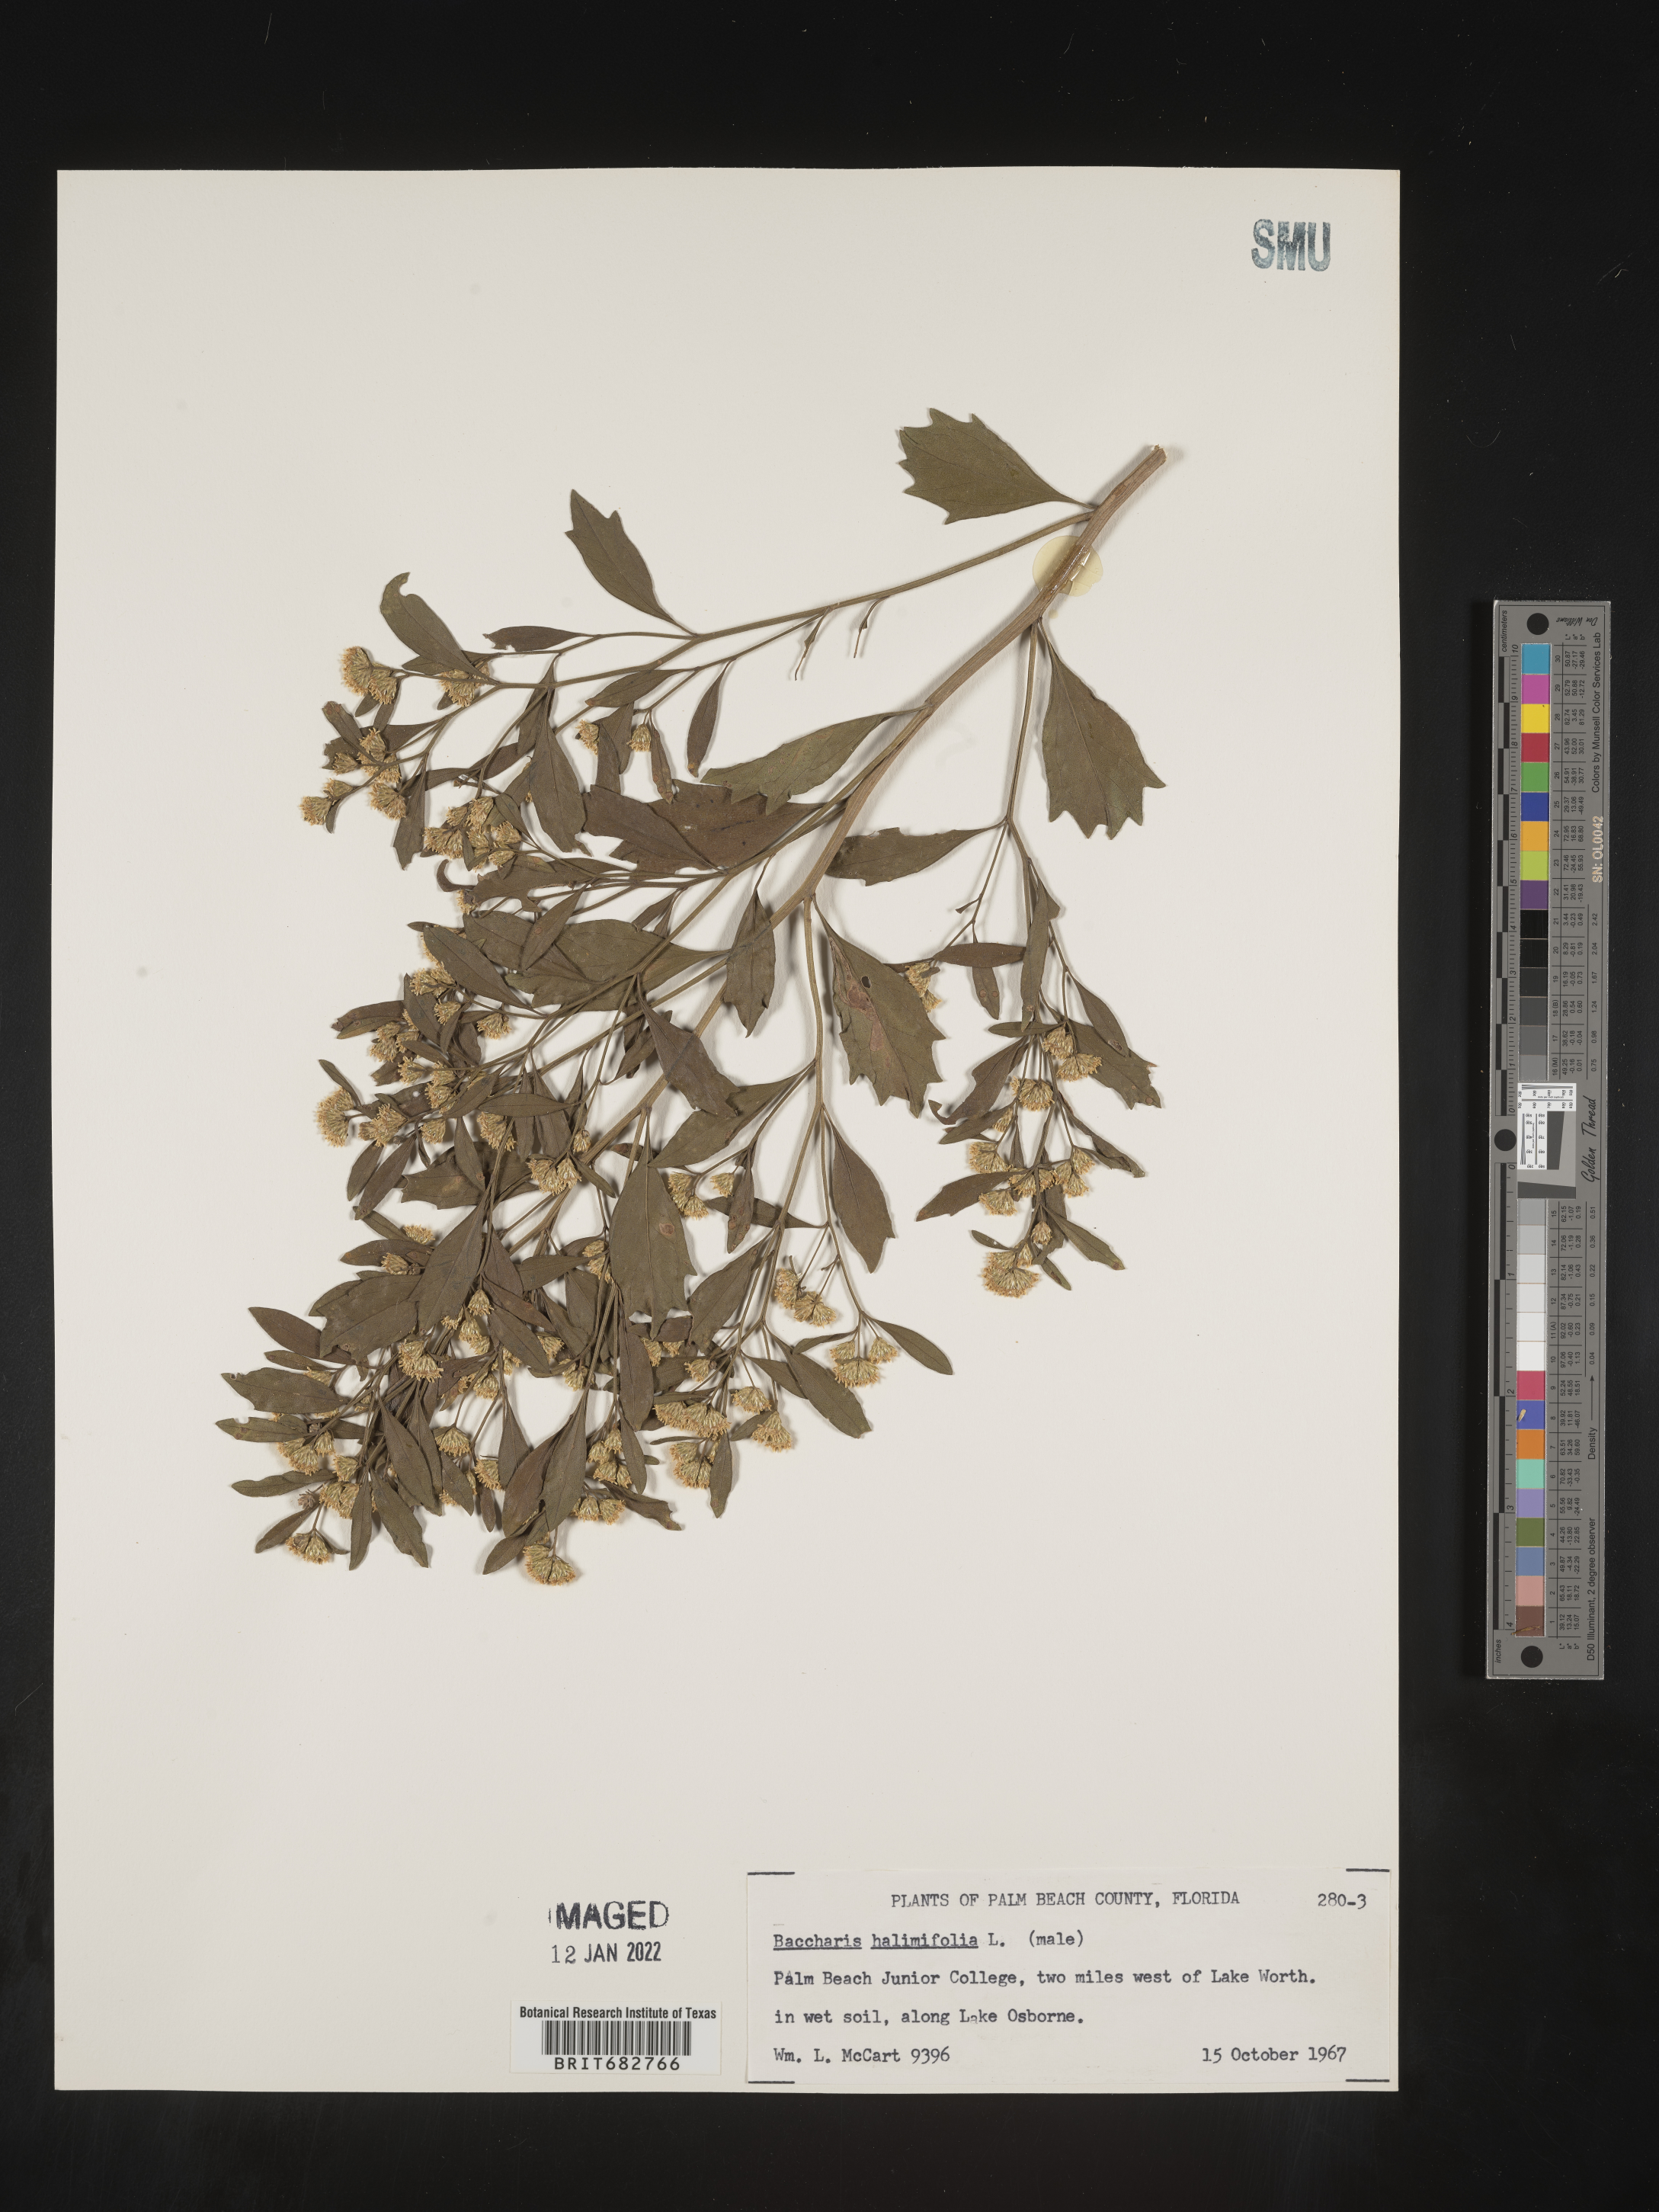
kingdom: Plantae
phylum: Tracheophyta
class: Magnoliopsida
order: Asterales
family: Asteraceae
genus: Nidorella
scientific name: Nidorella ivifolia
